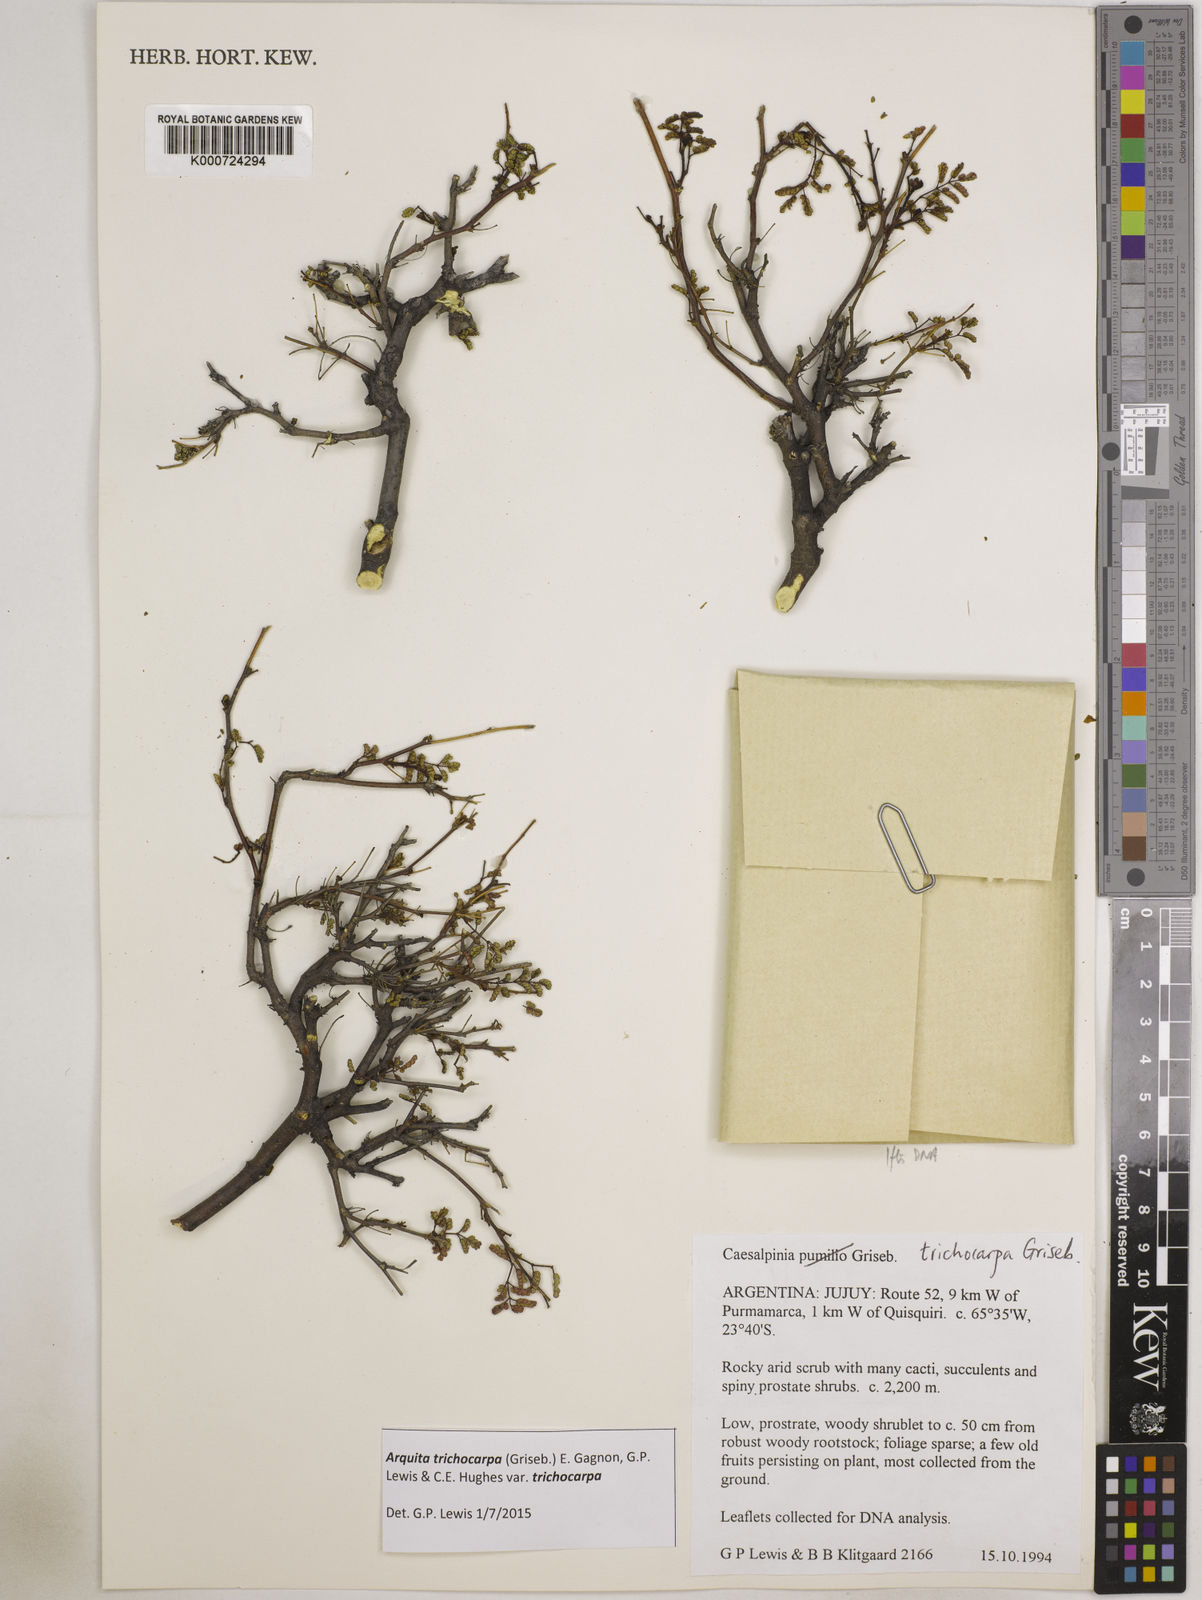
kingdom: Plantae
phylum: Tracheophyta
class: Magnoliopsida
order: Fabales
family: Fabaceae
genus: Arquita
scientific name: Arquita trichocarpa
